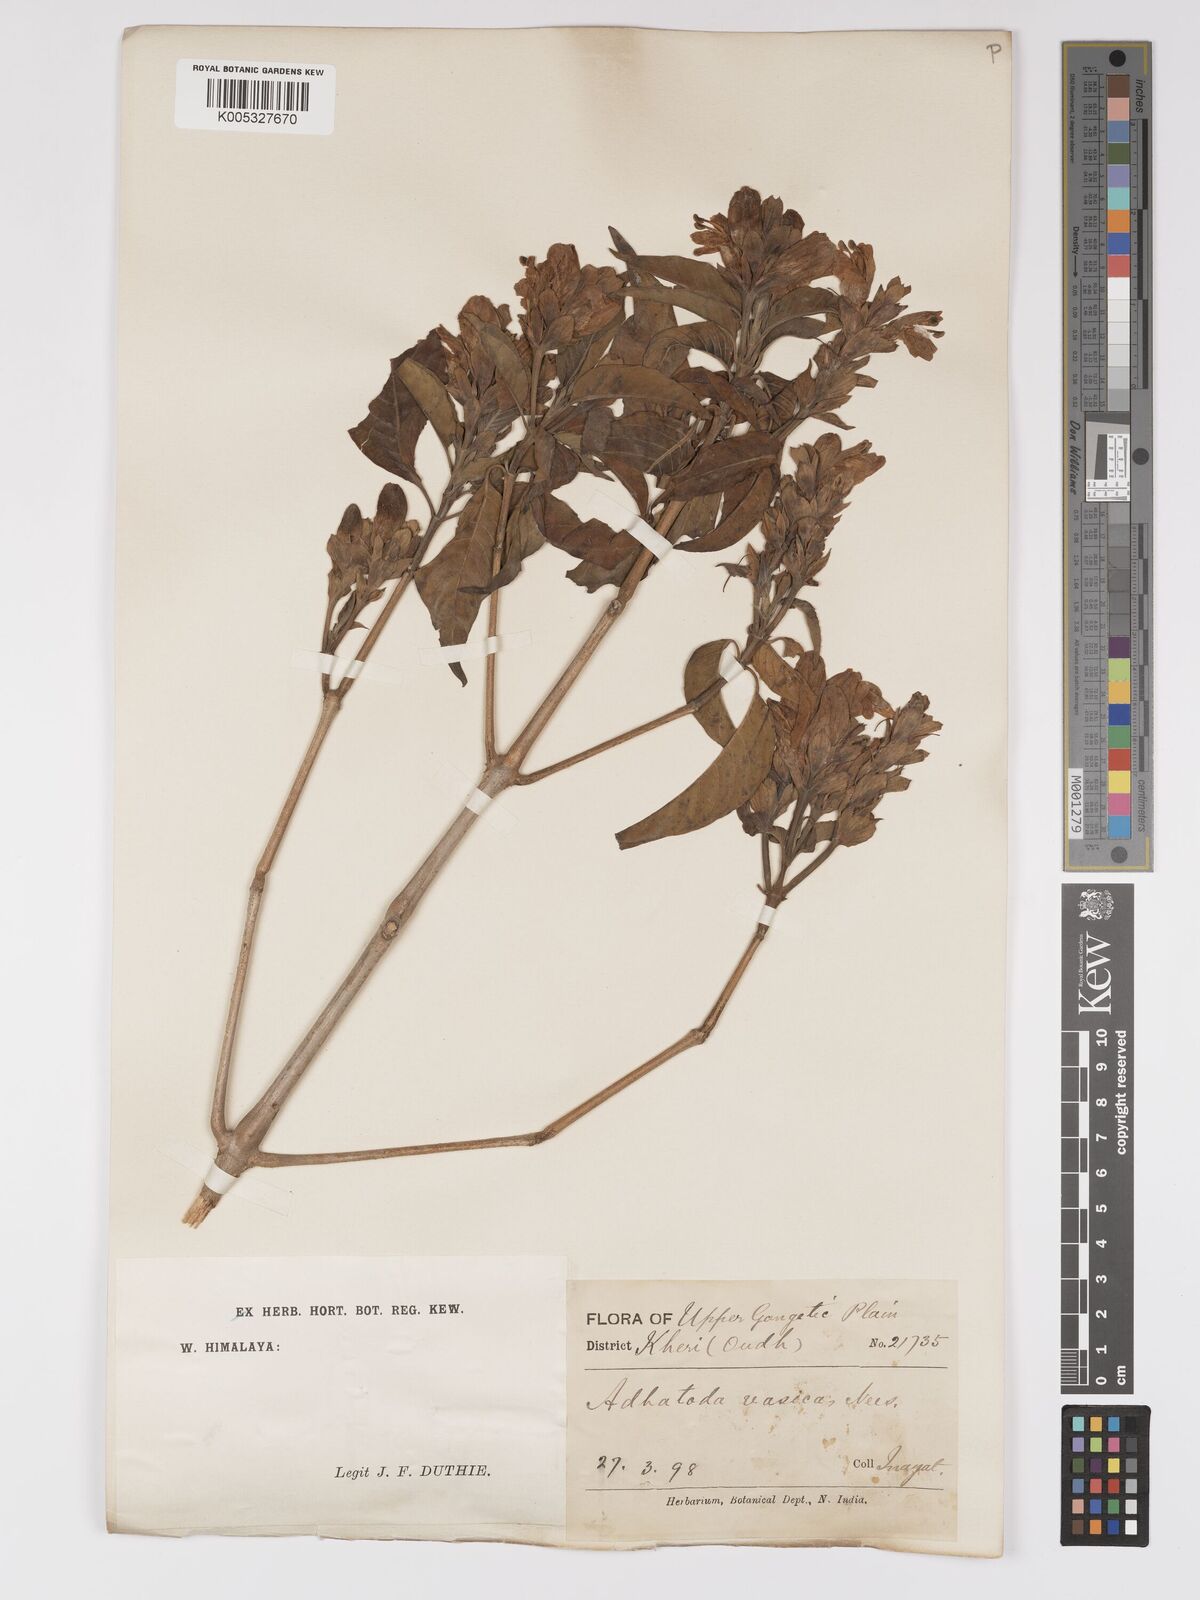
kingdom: Plantae
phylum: Tracheophyta
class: Magnoliopsida
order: Lamiales
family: Acanthaceae
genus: Ecbolium
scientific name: Ecbolium ligustrinum
